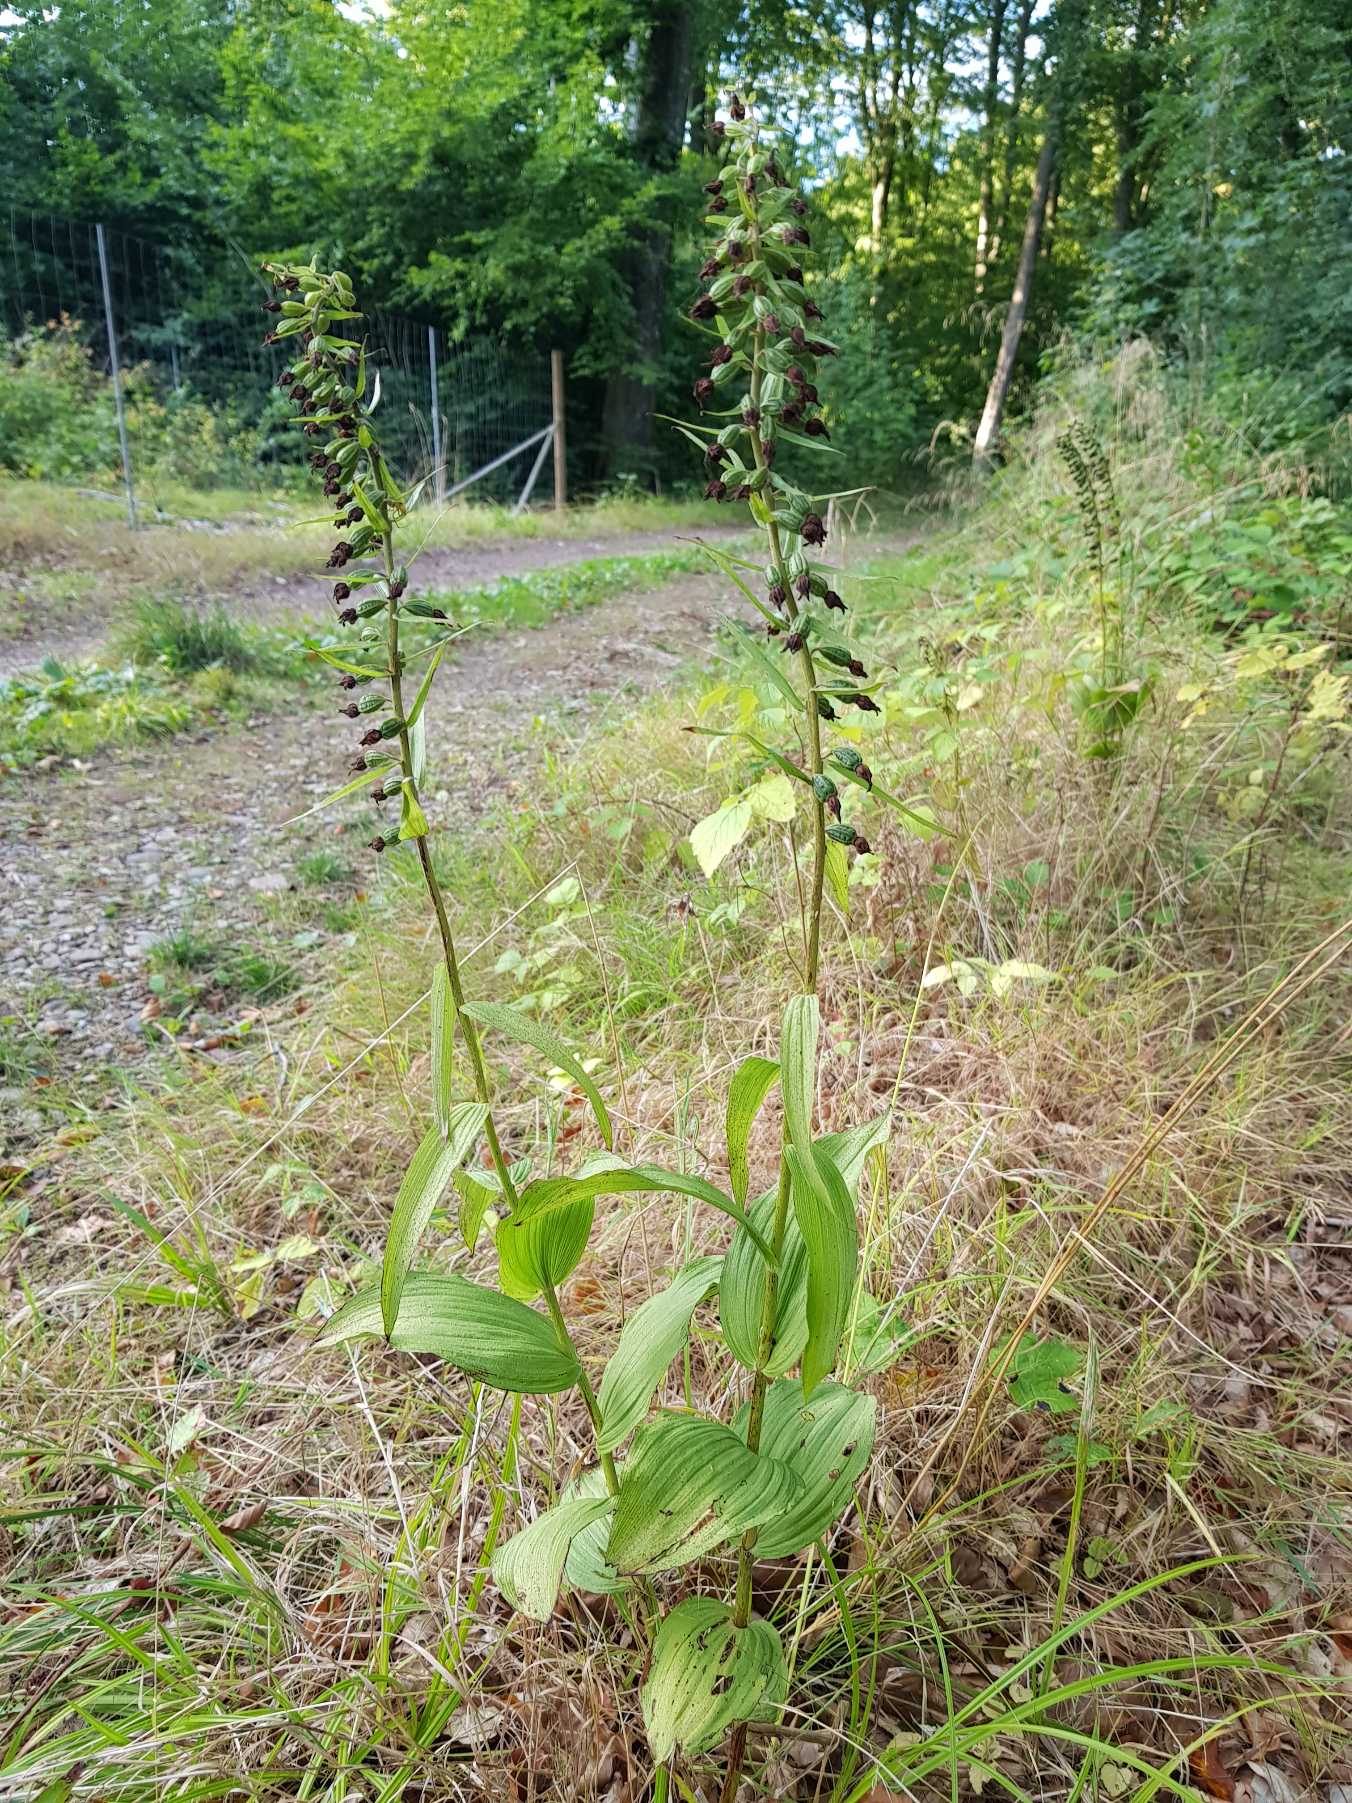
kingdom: Plantae
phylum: Tracheophyta
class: Liliopsida
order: Asparagales
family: Orchidaceae
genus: Epipactis
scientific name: Epipactis helleborine
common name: Skov-hullæbe
